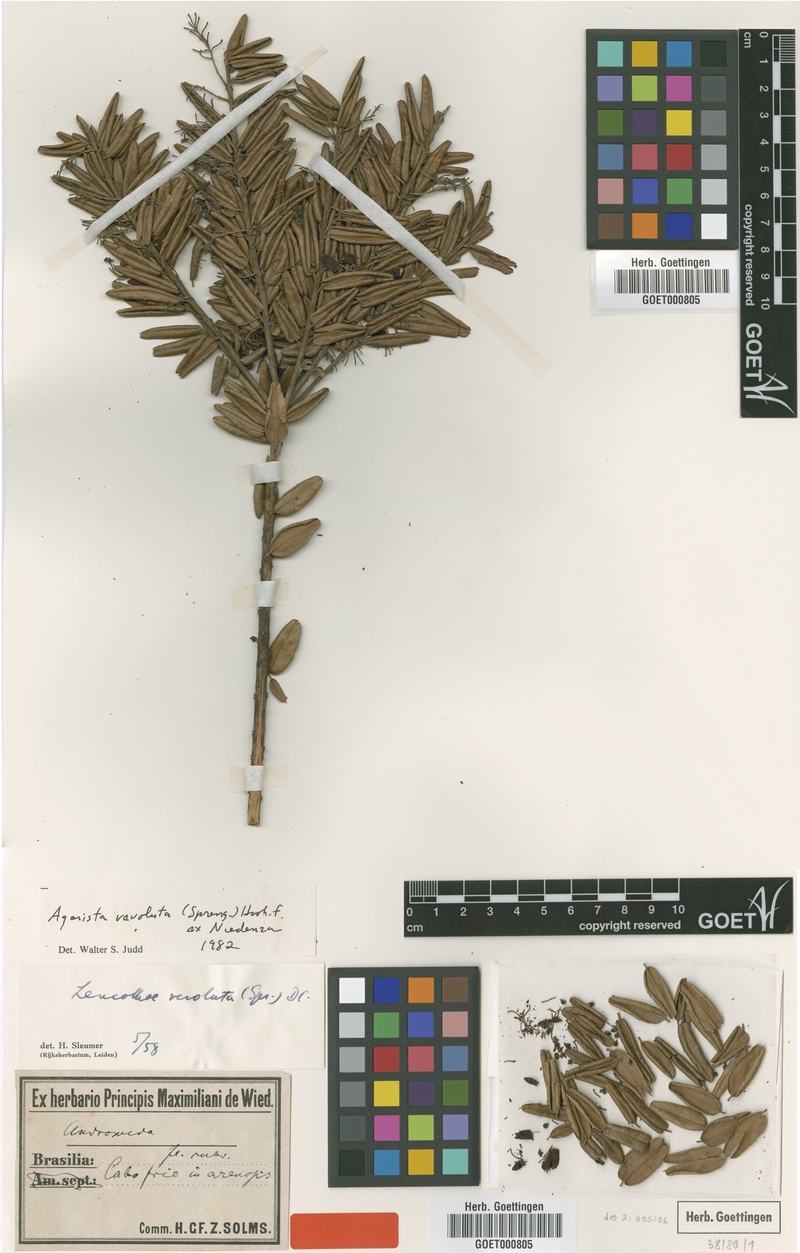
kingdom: Plantae
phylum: Tracheophyta
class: Magnoliopsida
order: Ericales
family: Ericaceae
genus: Agarista
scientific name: Agarista revoluta
